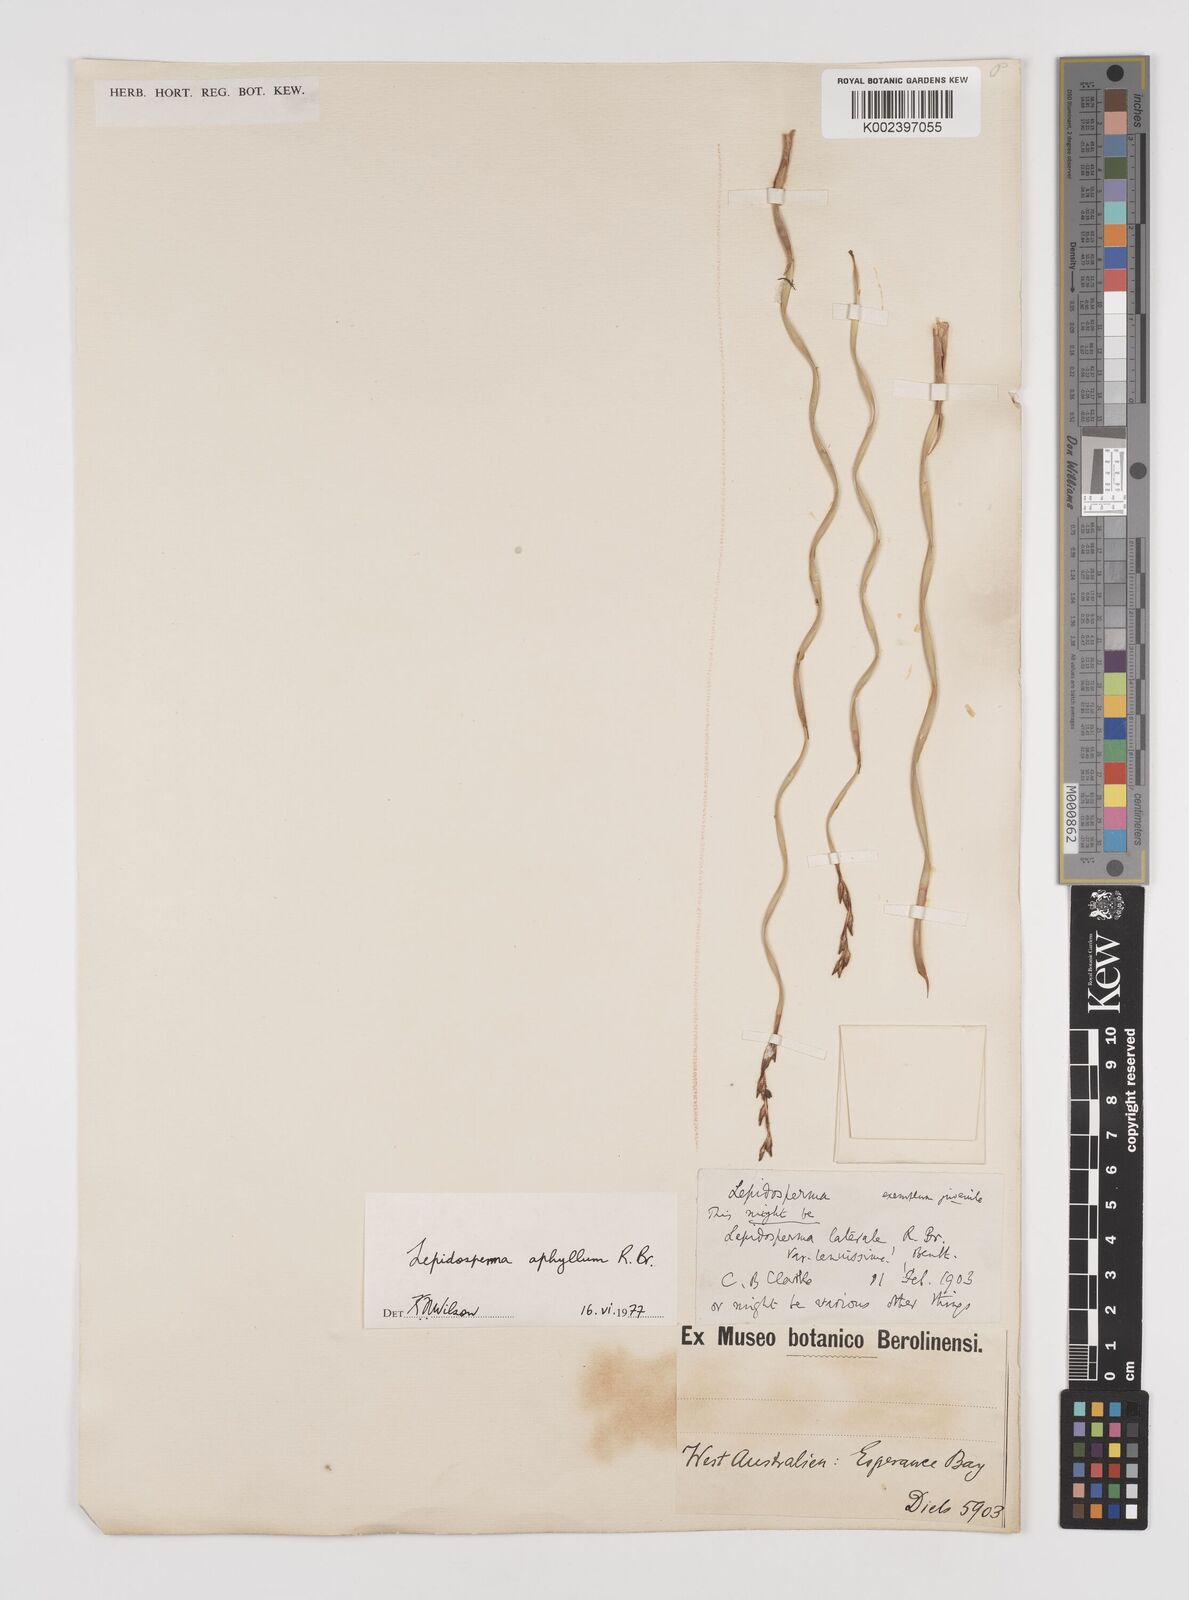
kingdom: Plantae
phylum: Tracheophyta
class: Liliopsida
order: Poales
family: Cyperaceae
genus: Lepidosperma
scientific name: Lepidosperma aphyllum
